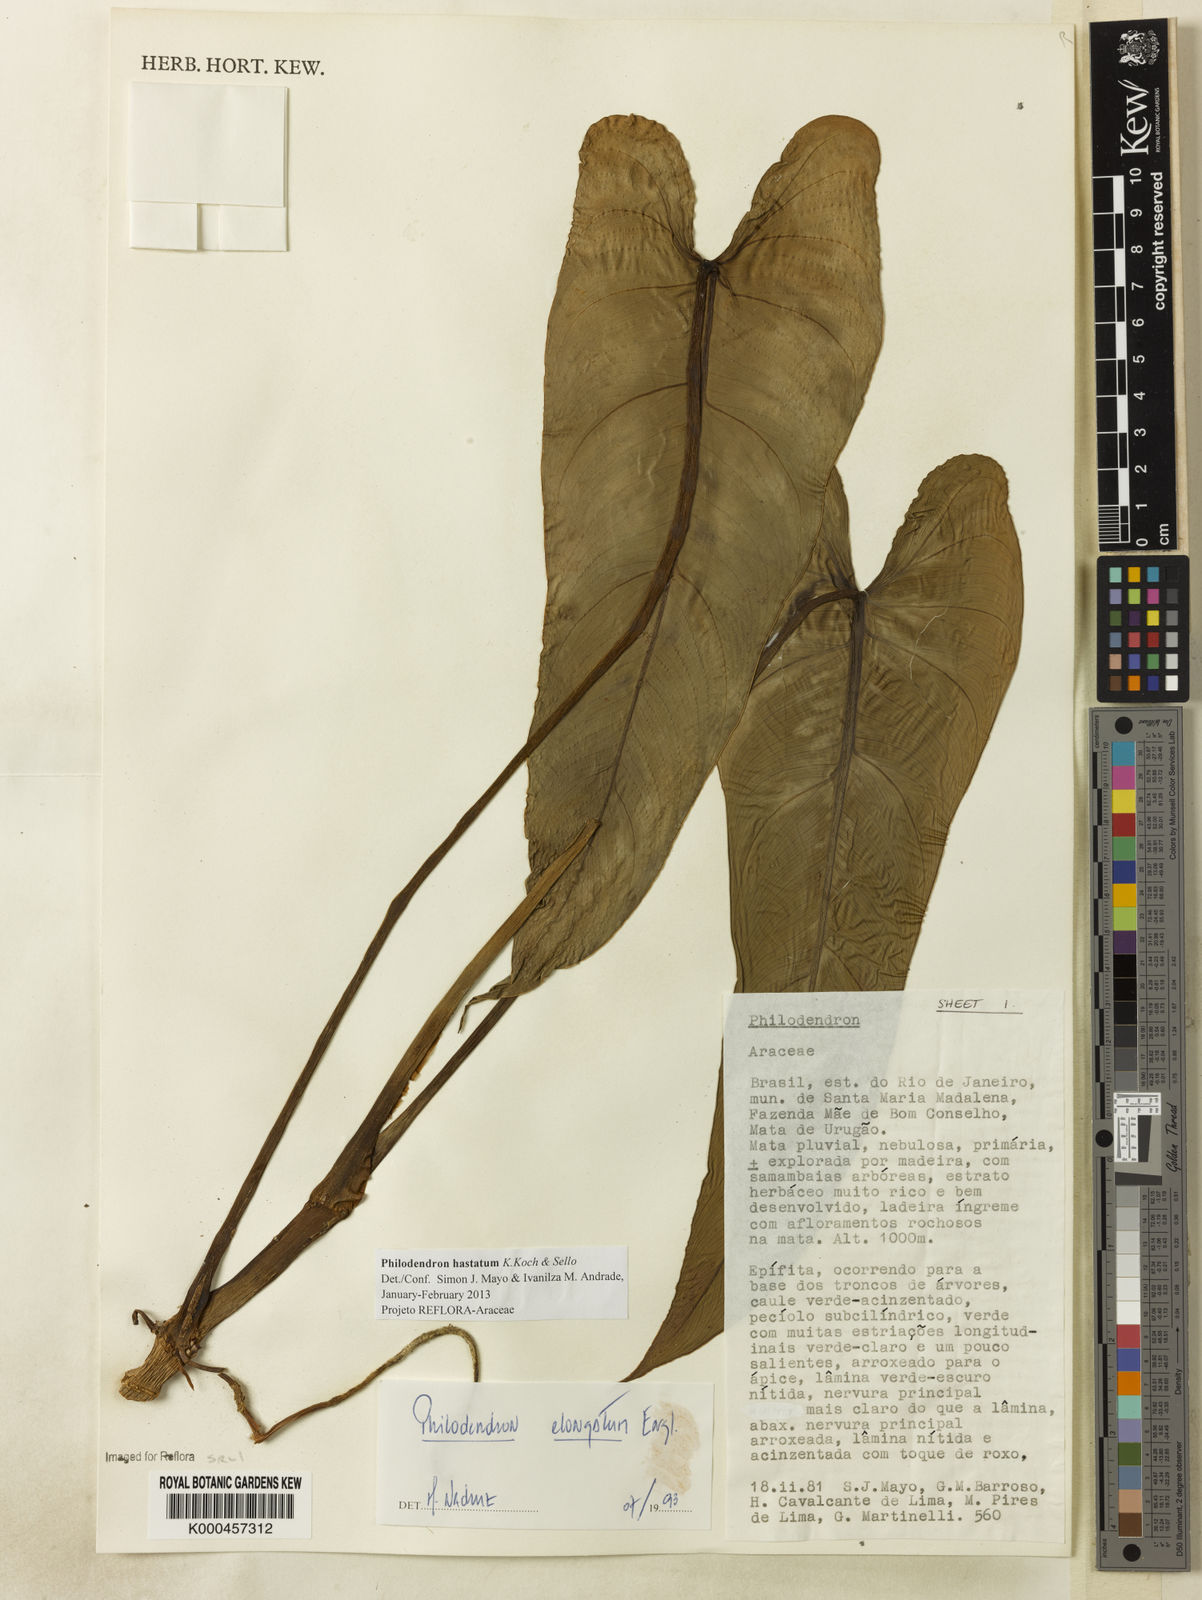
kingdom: Plantae
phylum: Tracheophyta
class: Liliopsida
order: Alismatales
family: Araceae
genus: Philodendron
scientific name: Philodendron hastatum
